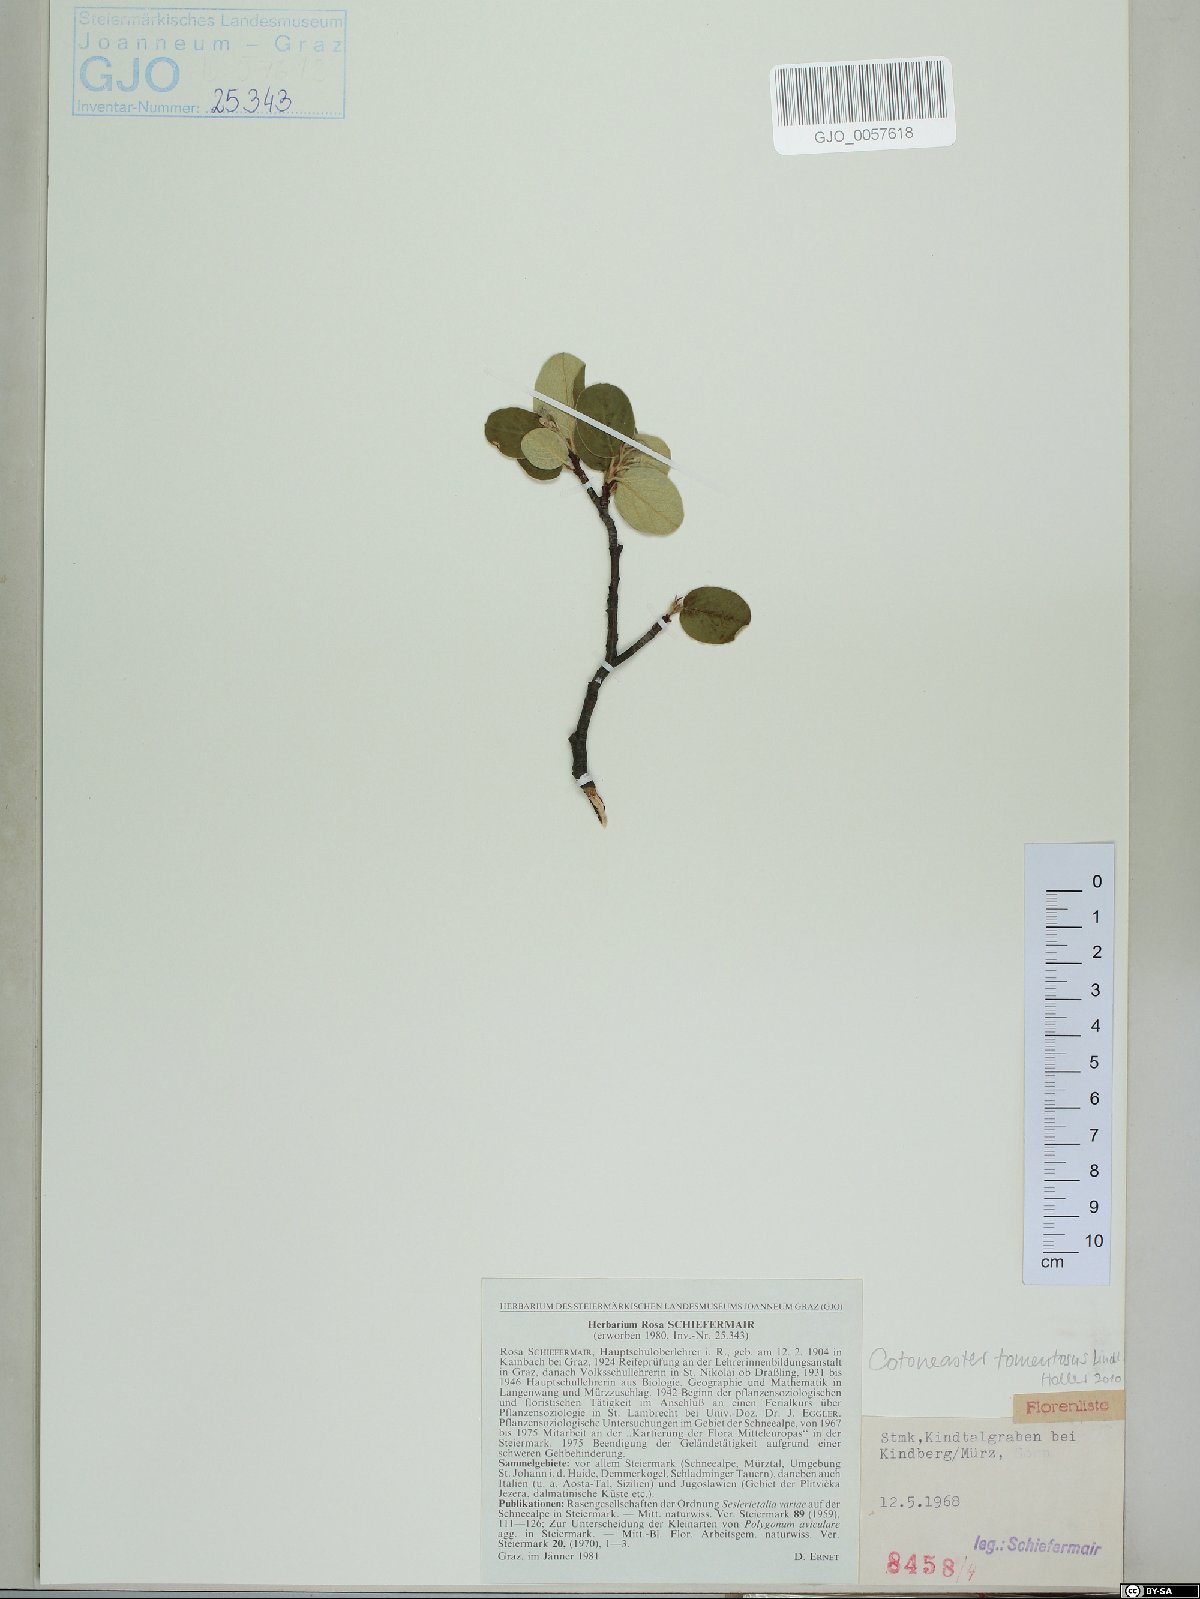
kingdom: Plantae
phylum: Tracheophyta
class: Magnoliopsida
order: Rosales
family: Rosaceae
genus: Cotoneaster
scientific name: Cotoneaster tomentosus
